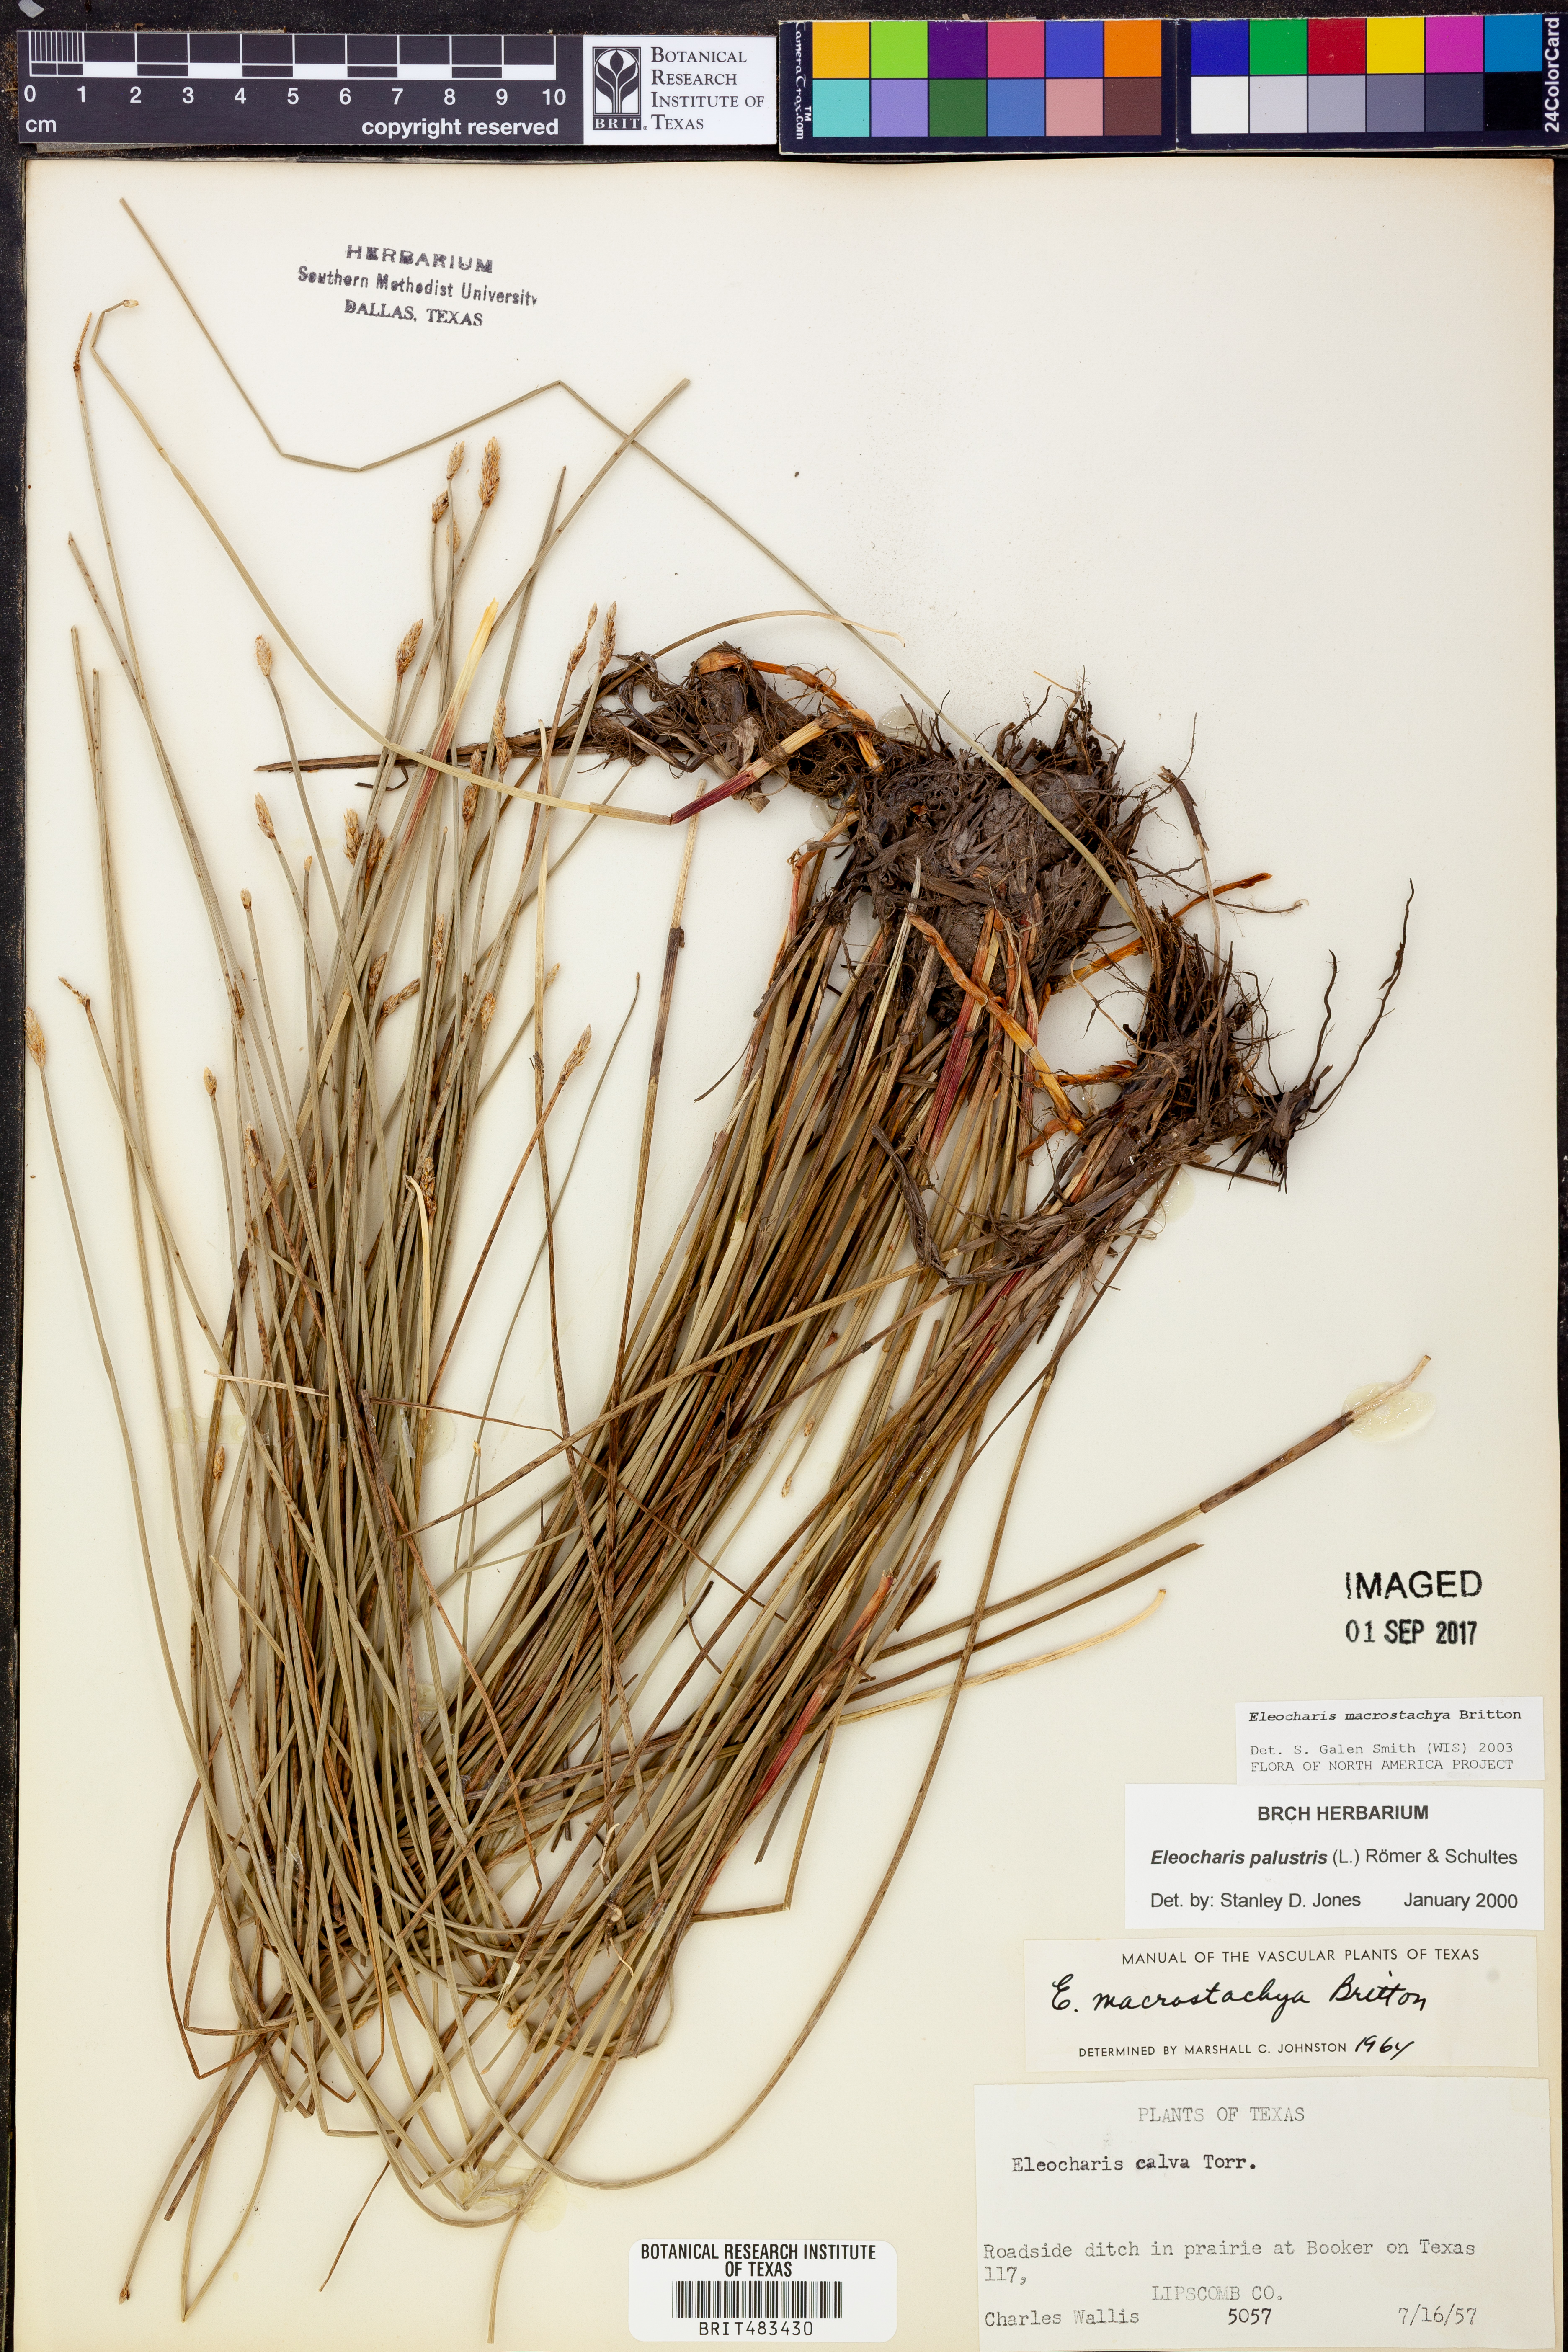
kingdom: Plantae
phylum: Tracheophyta
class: Liliopsida
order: Poales
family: Cyperaceae
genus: Eleocharis
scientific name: Eleocharis macrostachya
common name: Pale spikerush
